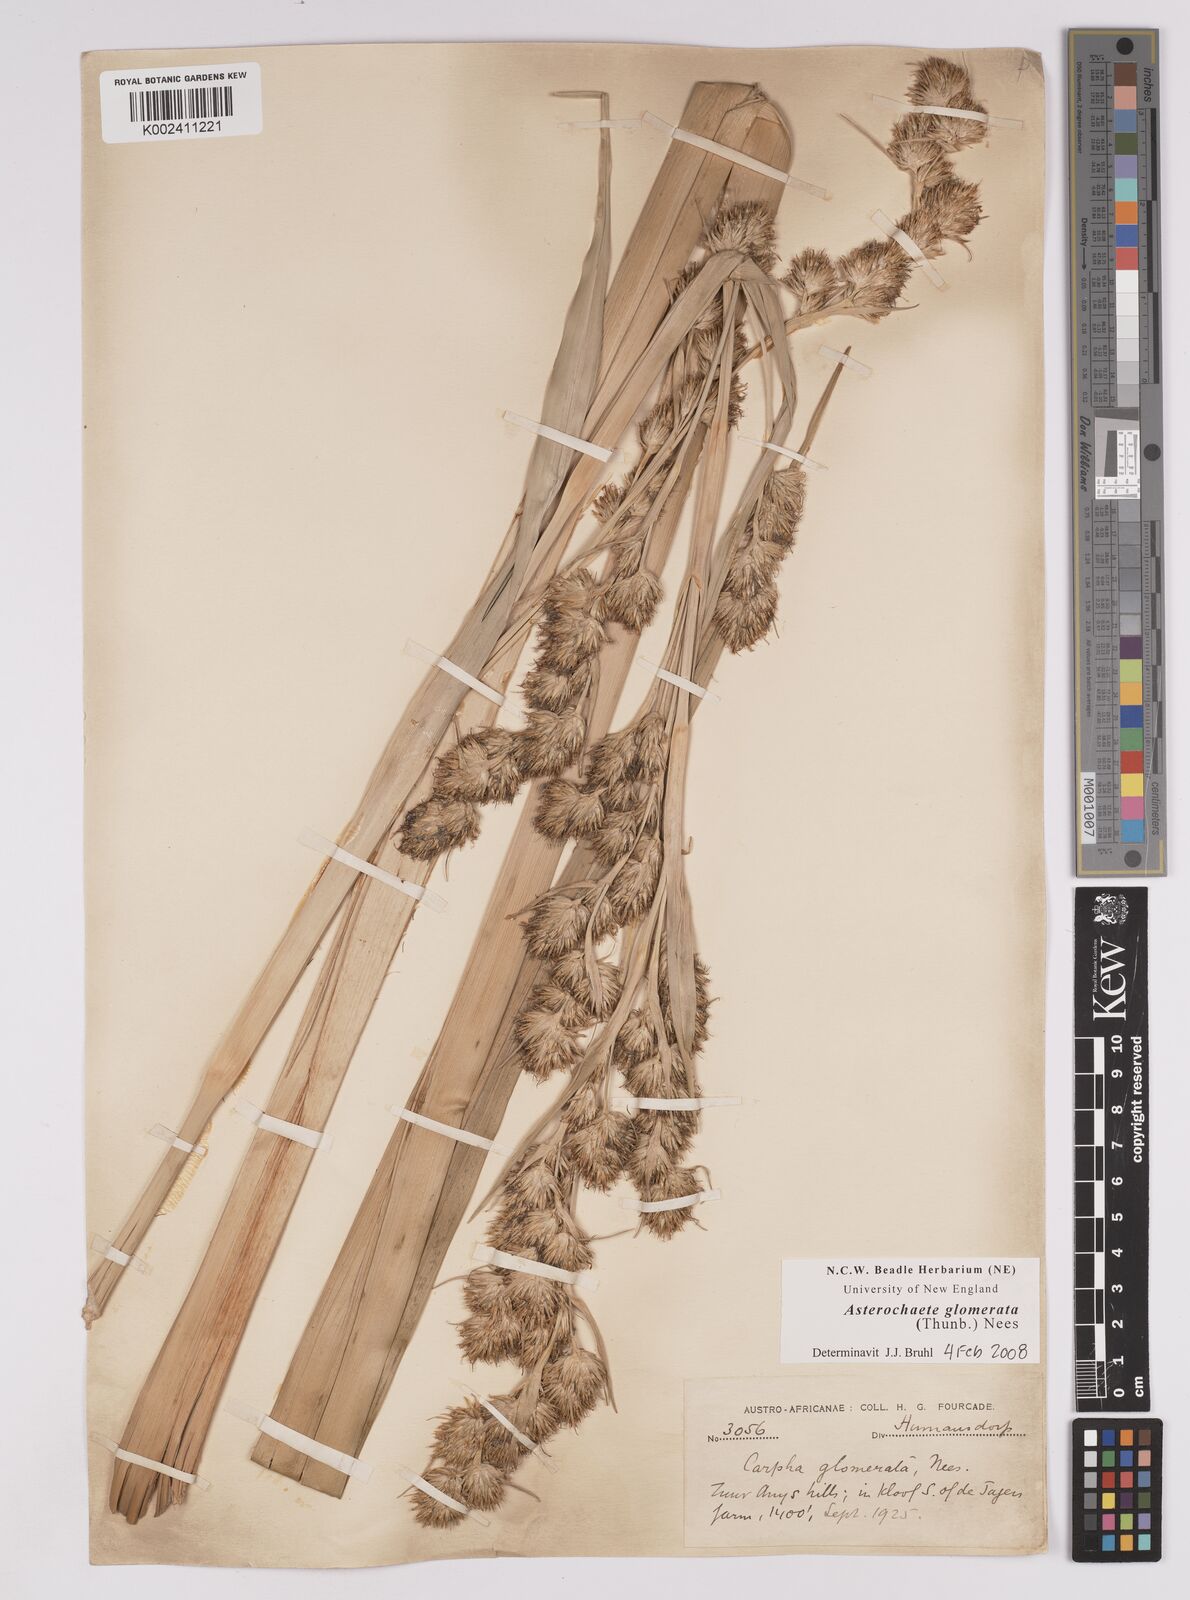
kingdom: Plantae
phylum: Tracheophyta
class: Liliopsida
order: Poales
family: Cyperaceae
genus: Carpha
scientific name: Carpha glomerata
